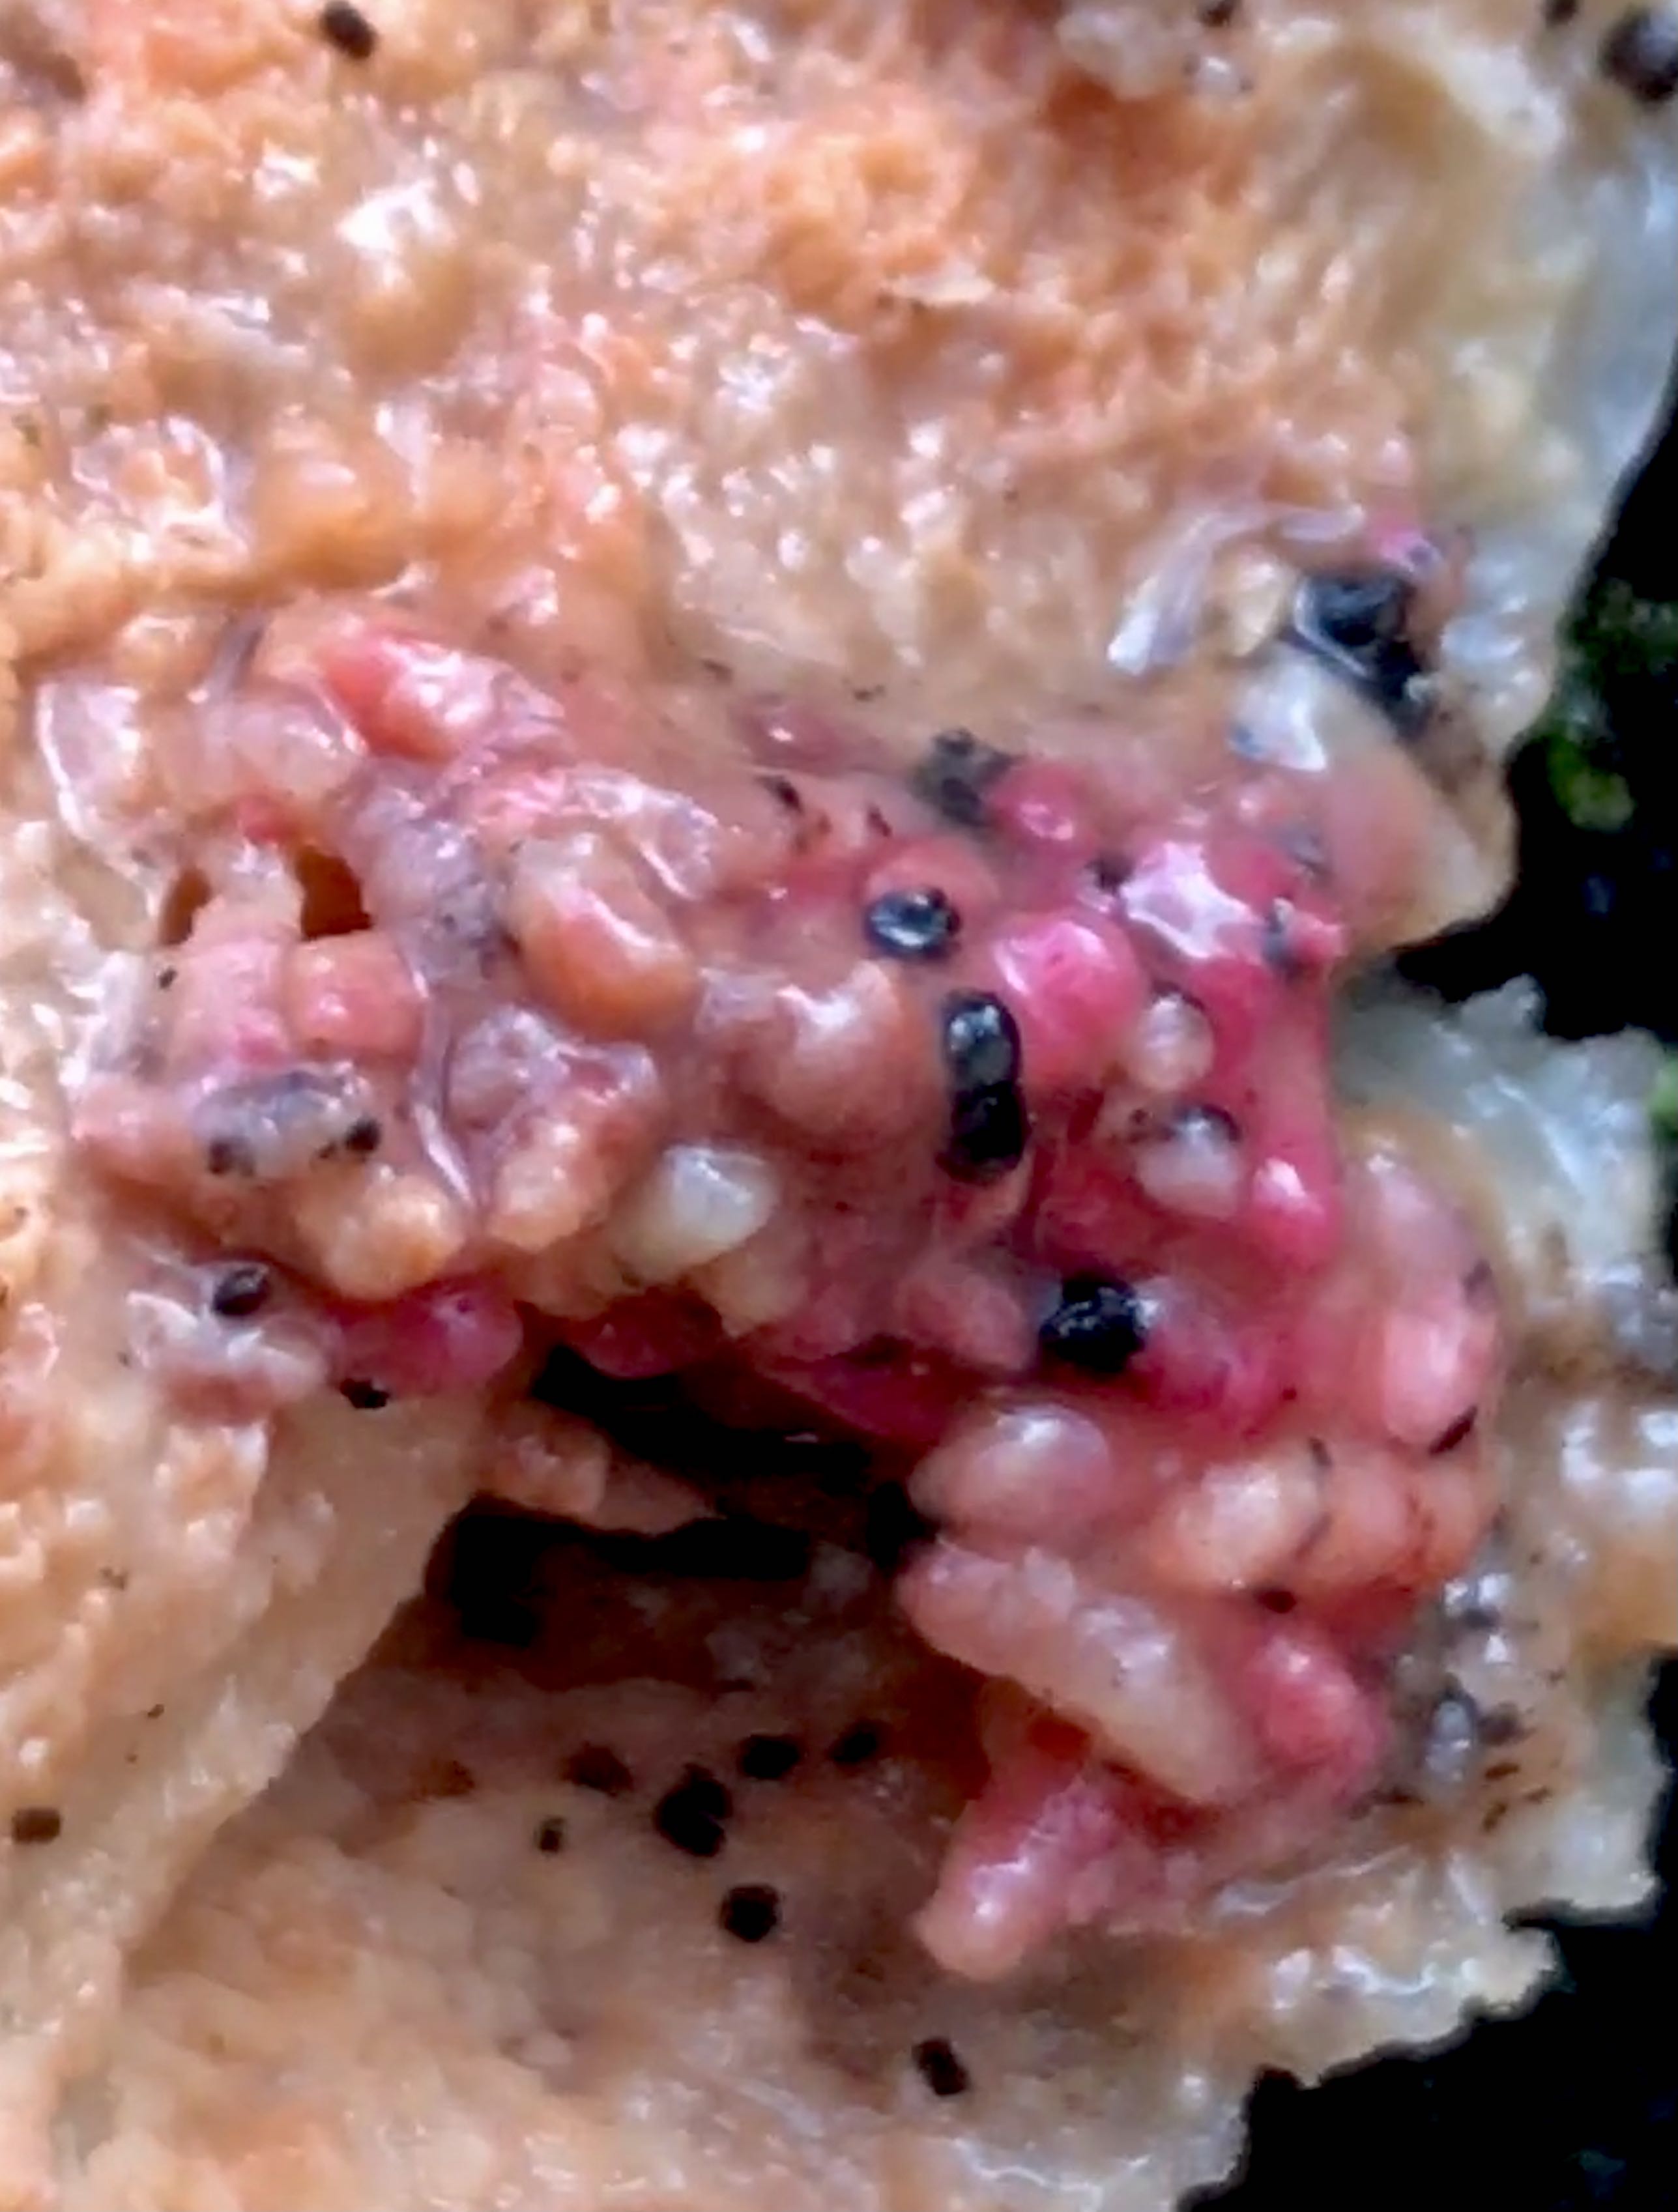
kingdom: Fungi
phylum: Basidiomycota
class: Agaricomycetes
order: Polyporales
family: Meruliaceae
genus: Phlebia
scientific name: Phlebia tremellosa
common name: bævrende åresvamp
